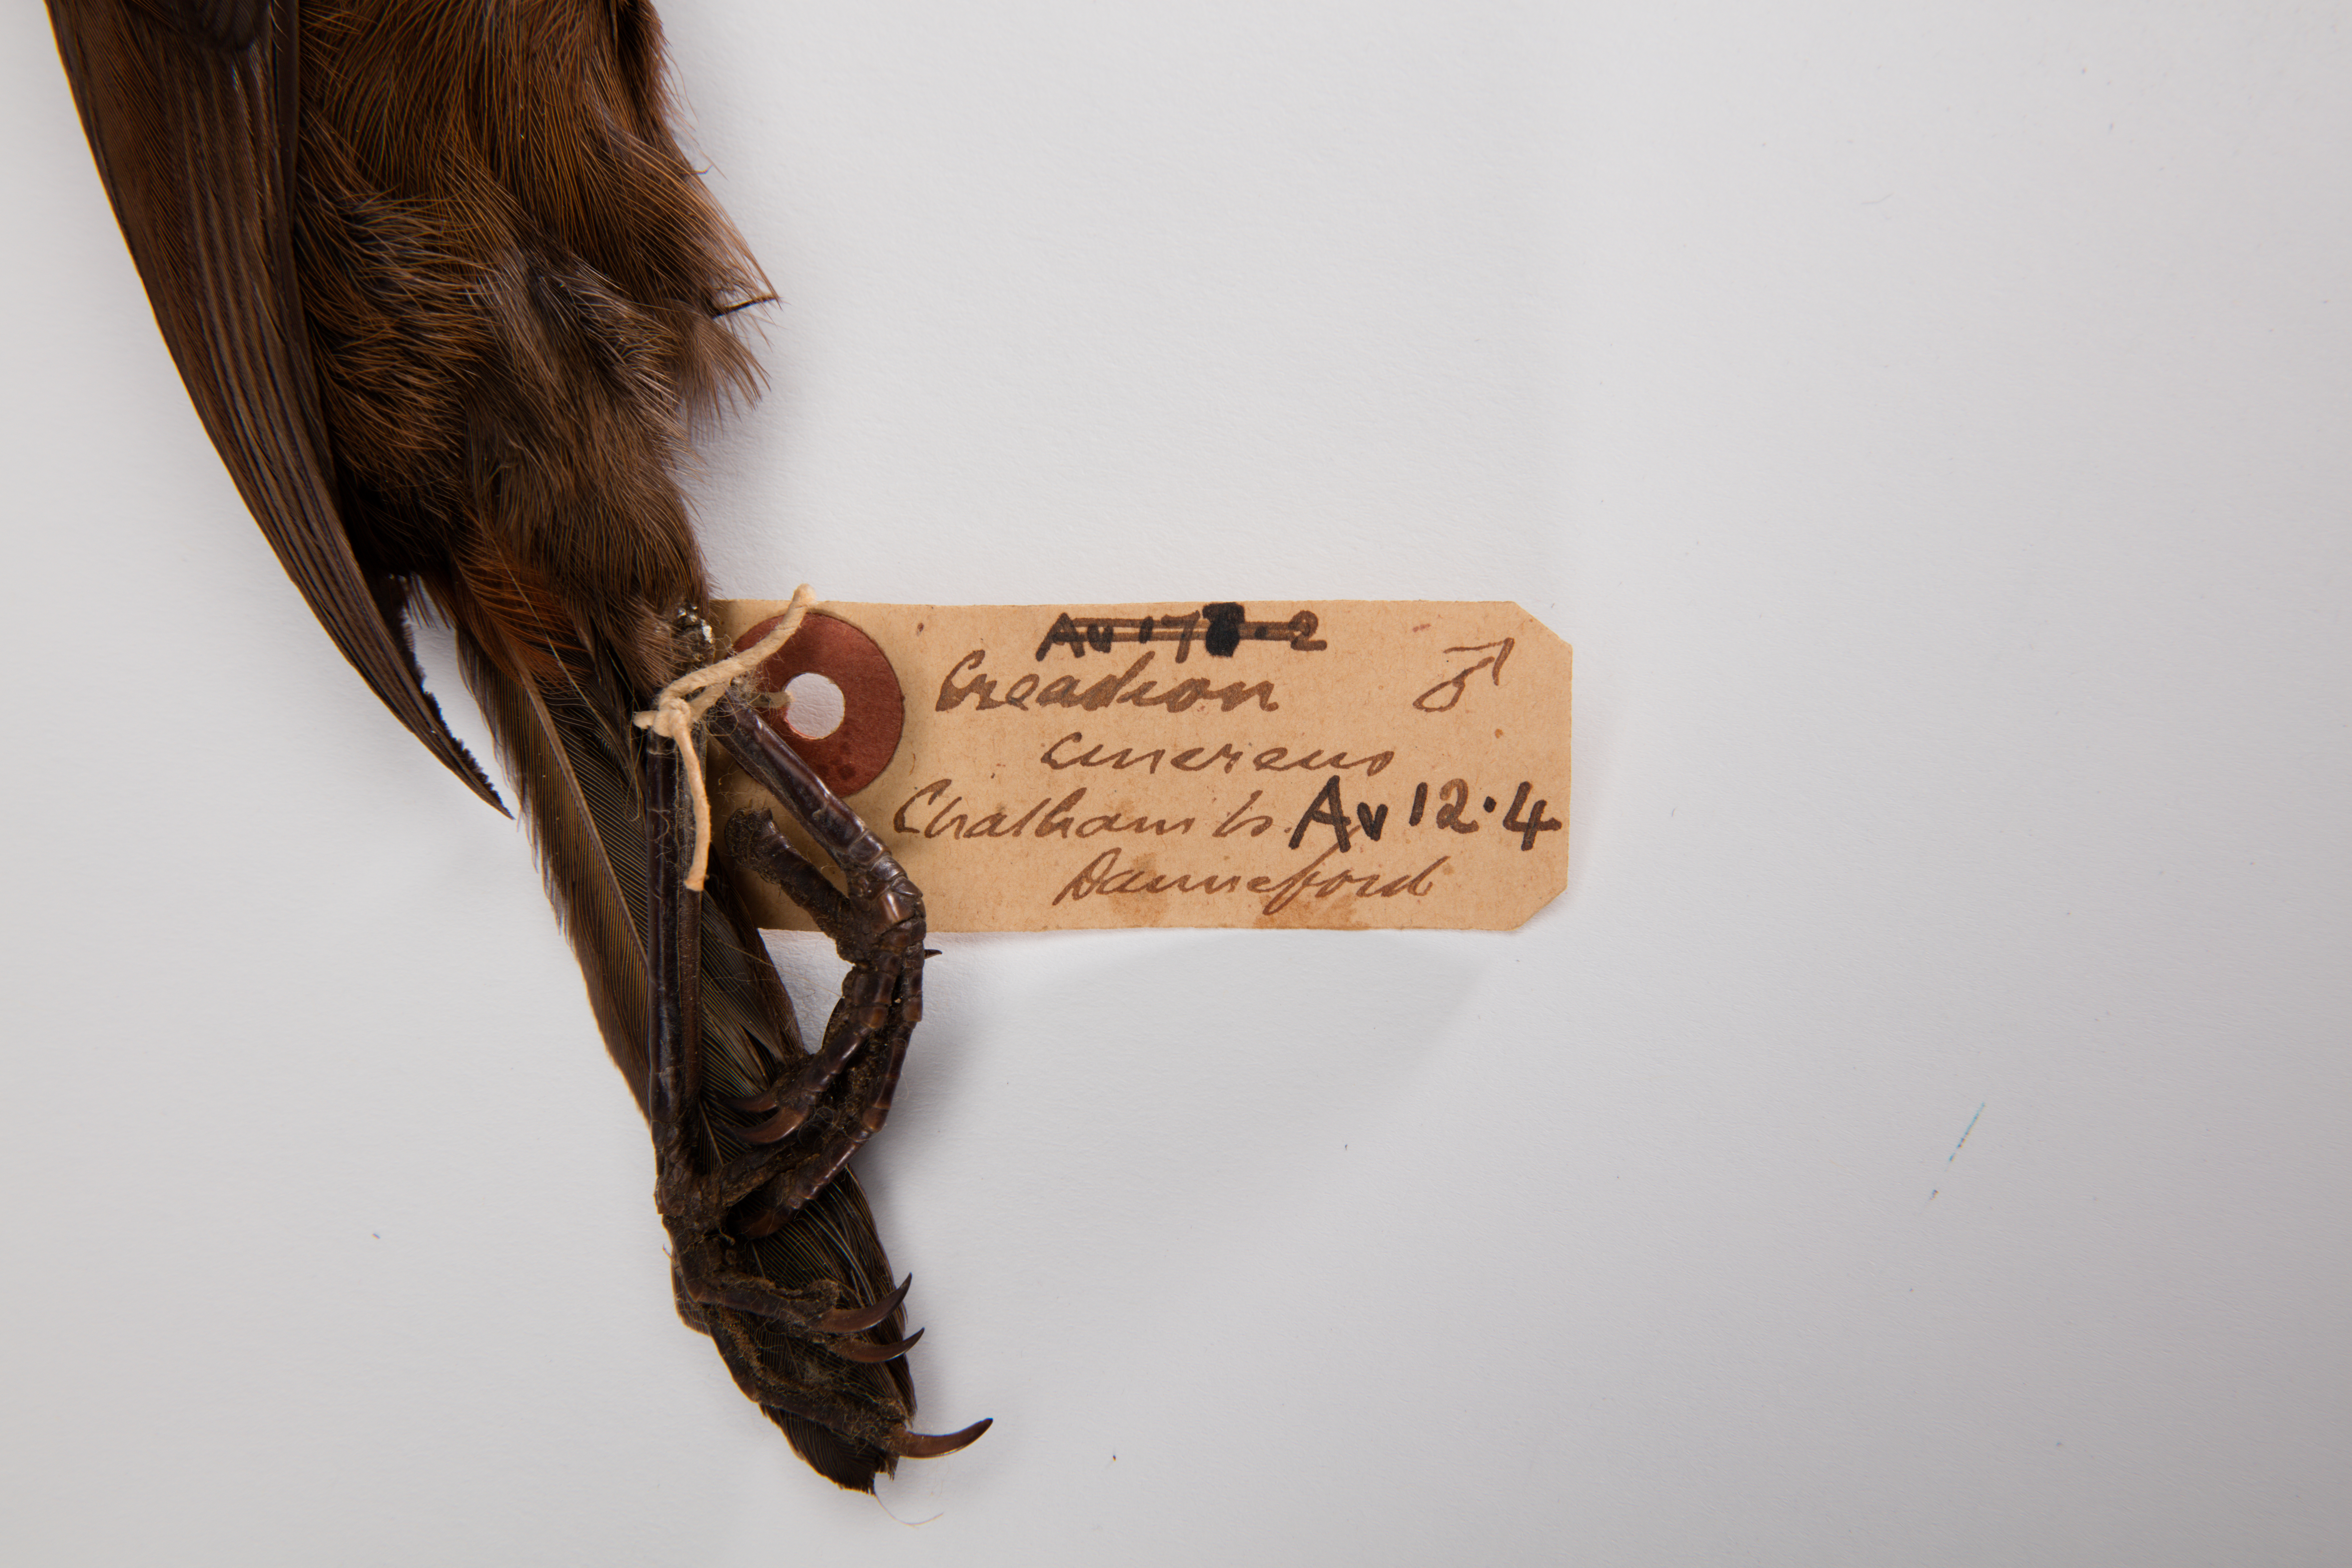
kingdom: Animalia
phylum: Chordata
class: Aves
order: Passeriformes
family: Callaeatidae
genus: Philesturnus
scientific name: Philesturnus carunculatus
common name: South island saddleback
